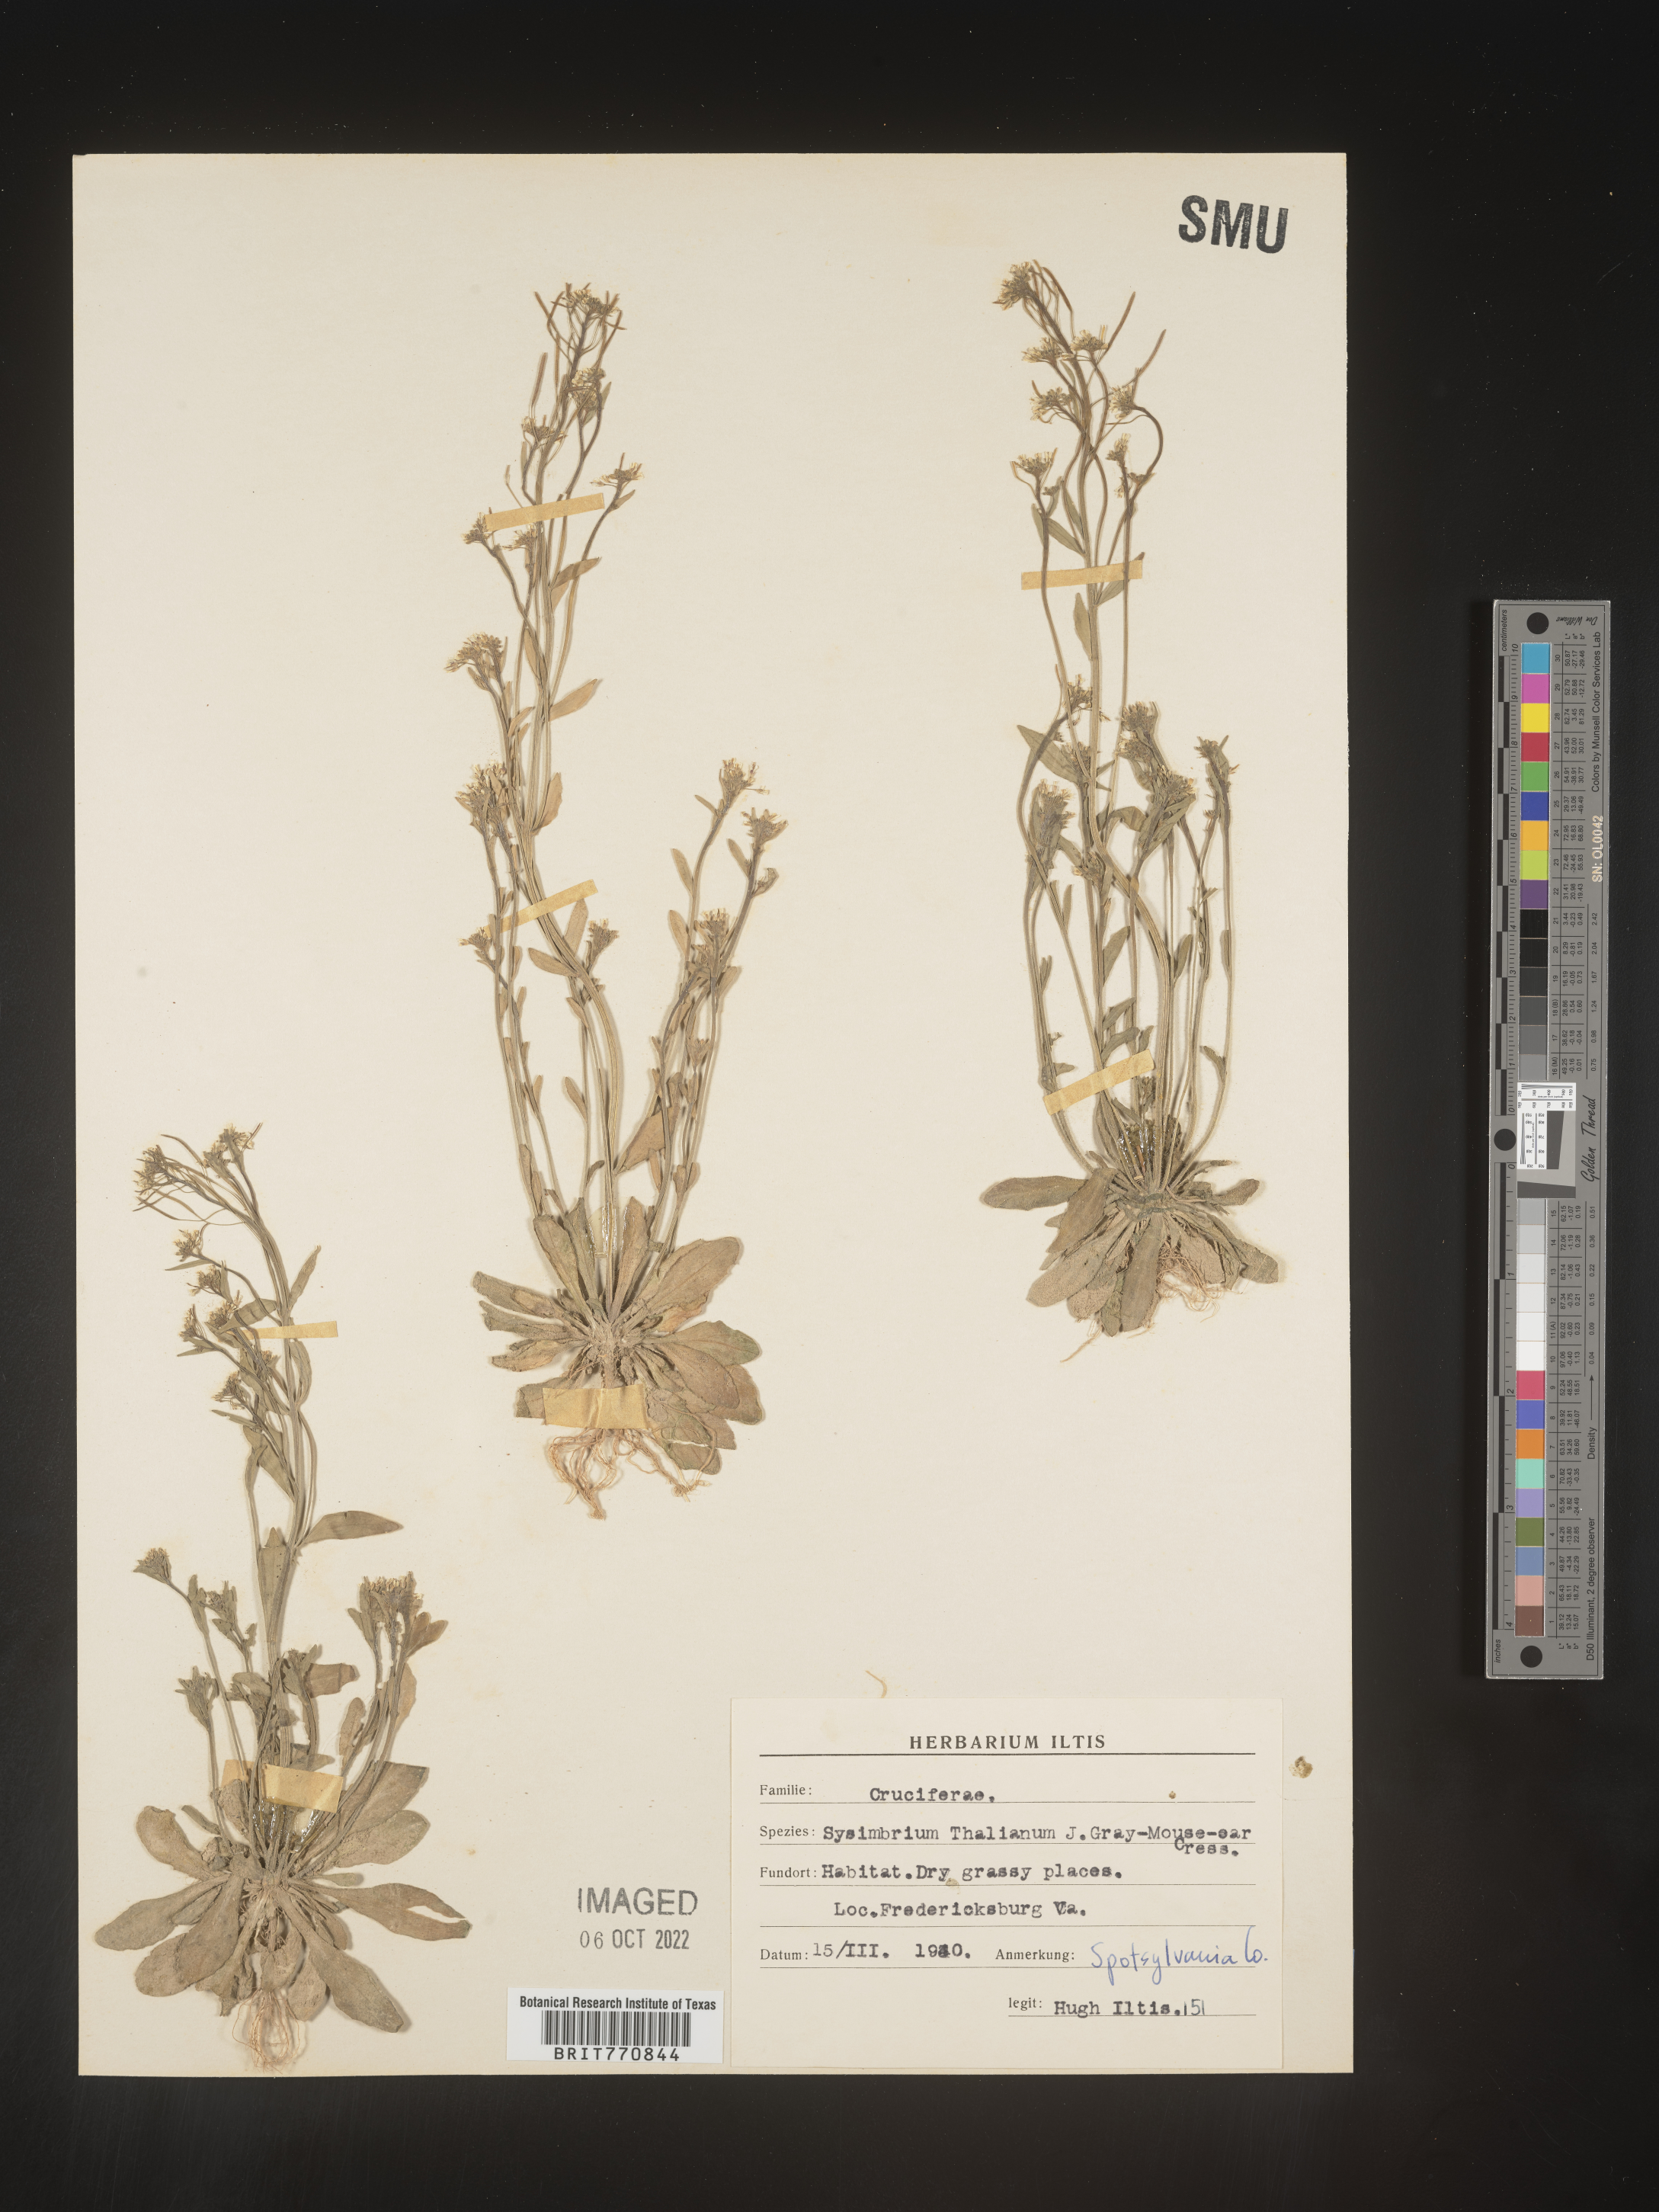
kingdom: Plantae
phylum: Tracheophyta
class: Magnoliopsida
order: Brassicales
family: Brassicaceae
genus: Arabidopsis
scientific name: Arabidopsis thaliana
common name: Thale cress
